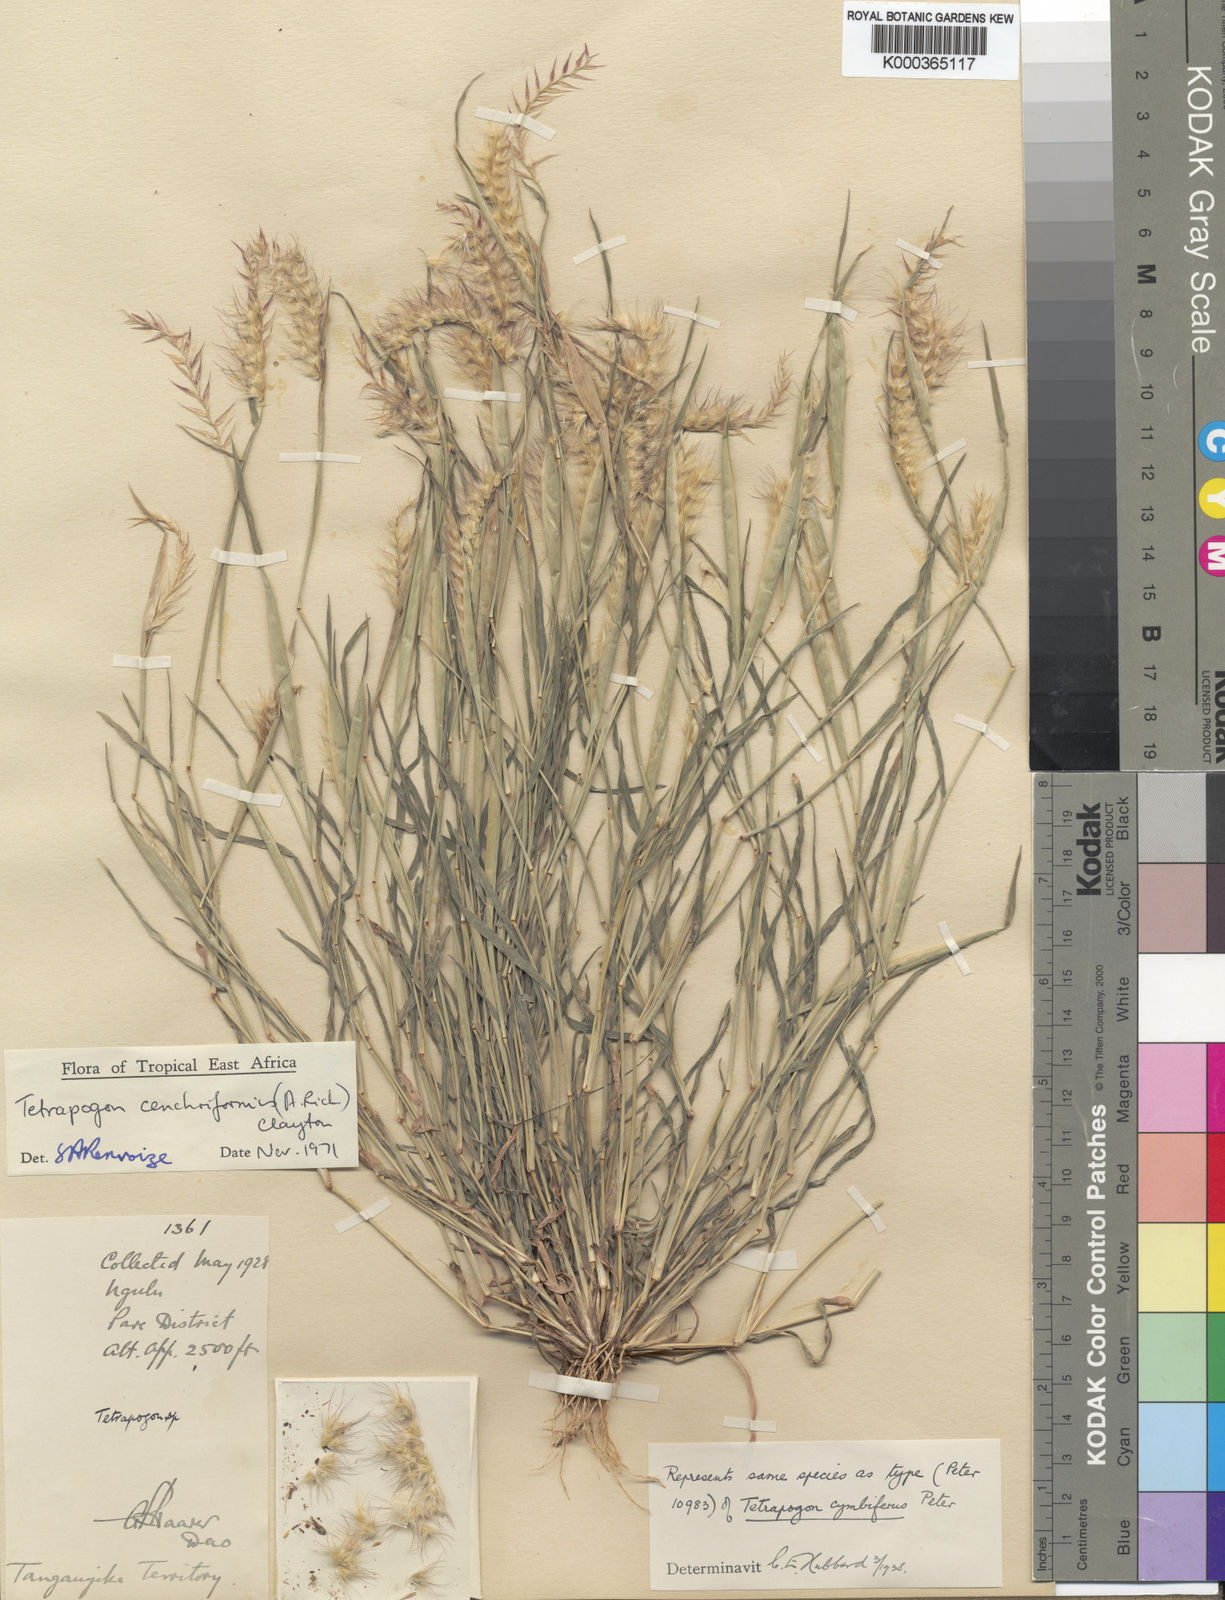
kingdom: Plantae
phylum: Tracheophyta
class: Liliopsida
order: Poales
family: Poaceae
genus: Tetrapogon
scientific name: Tetrapogon
